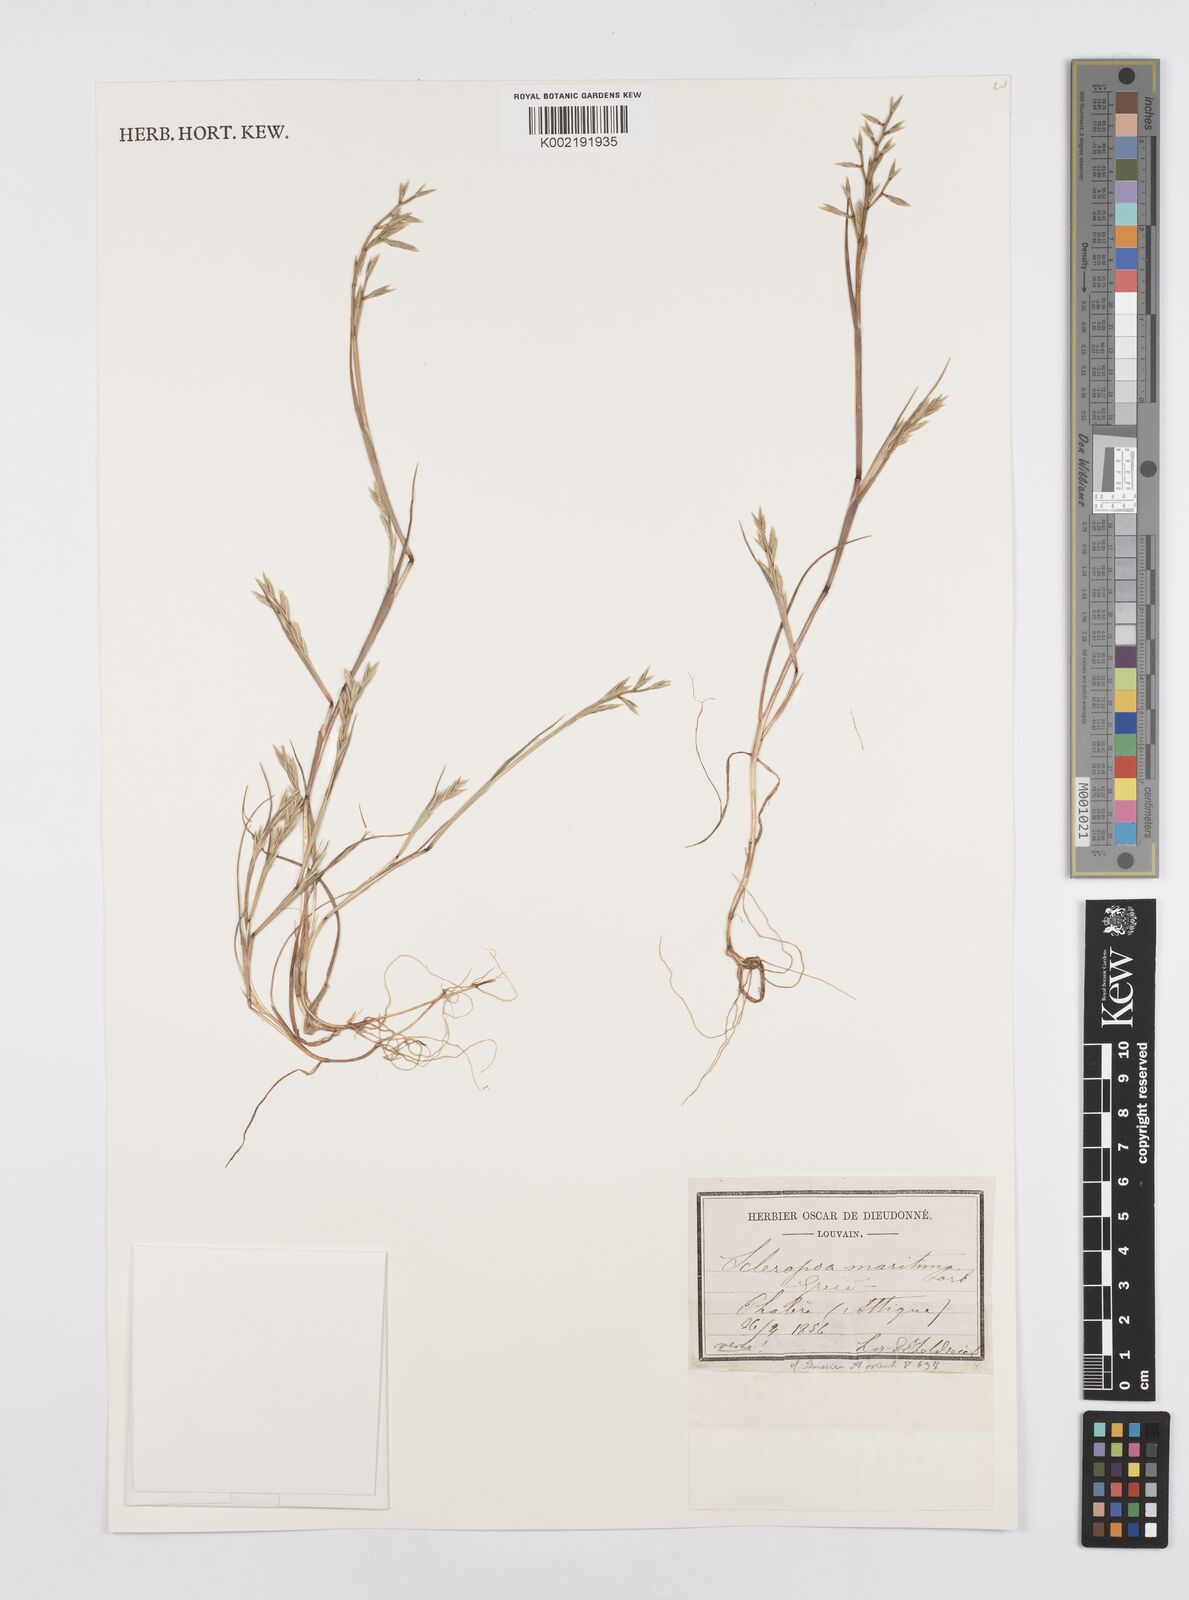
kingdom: Plantae
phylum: Tracheophyta
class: Liliopsida
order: Poales
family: Poaceae
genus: Cutandia
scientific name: Cutandia maritima
